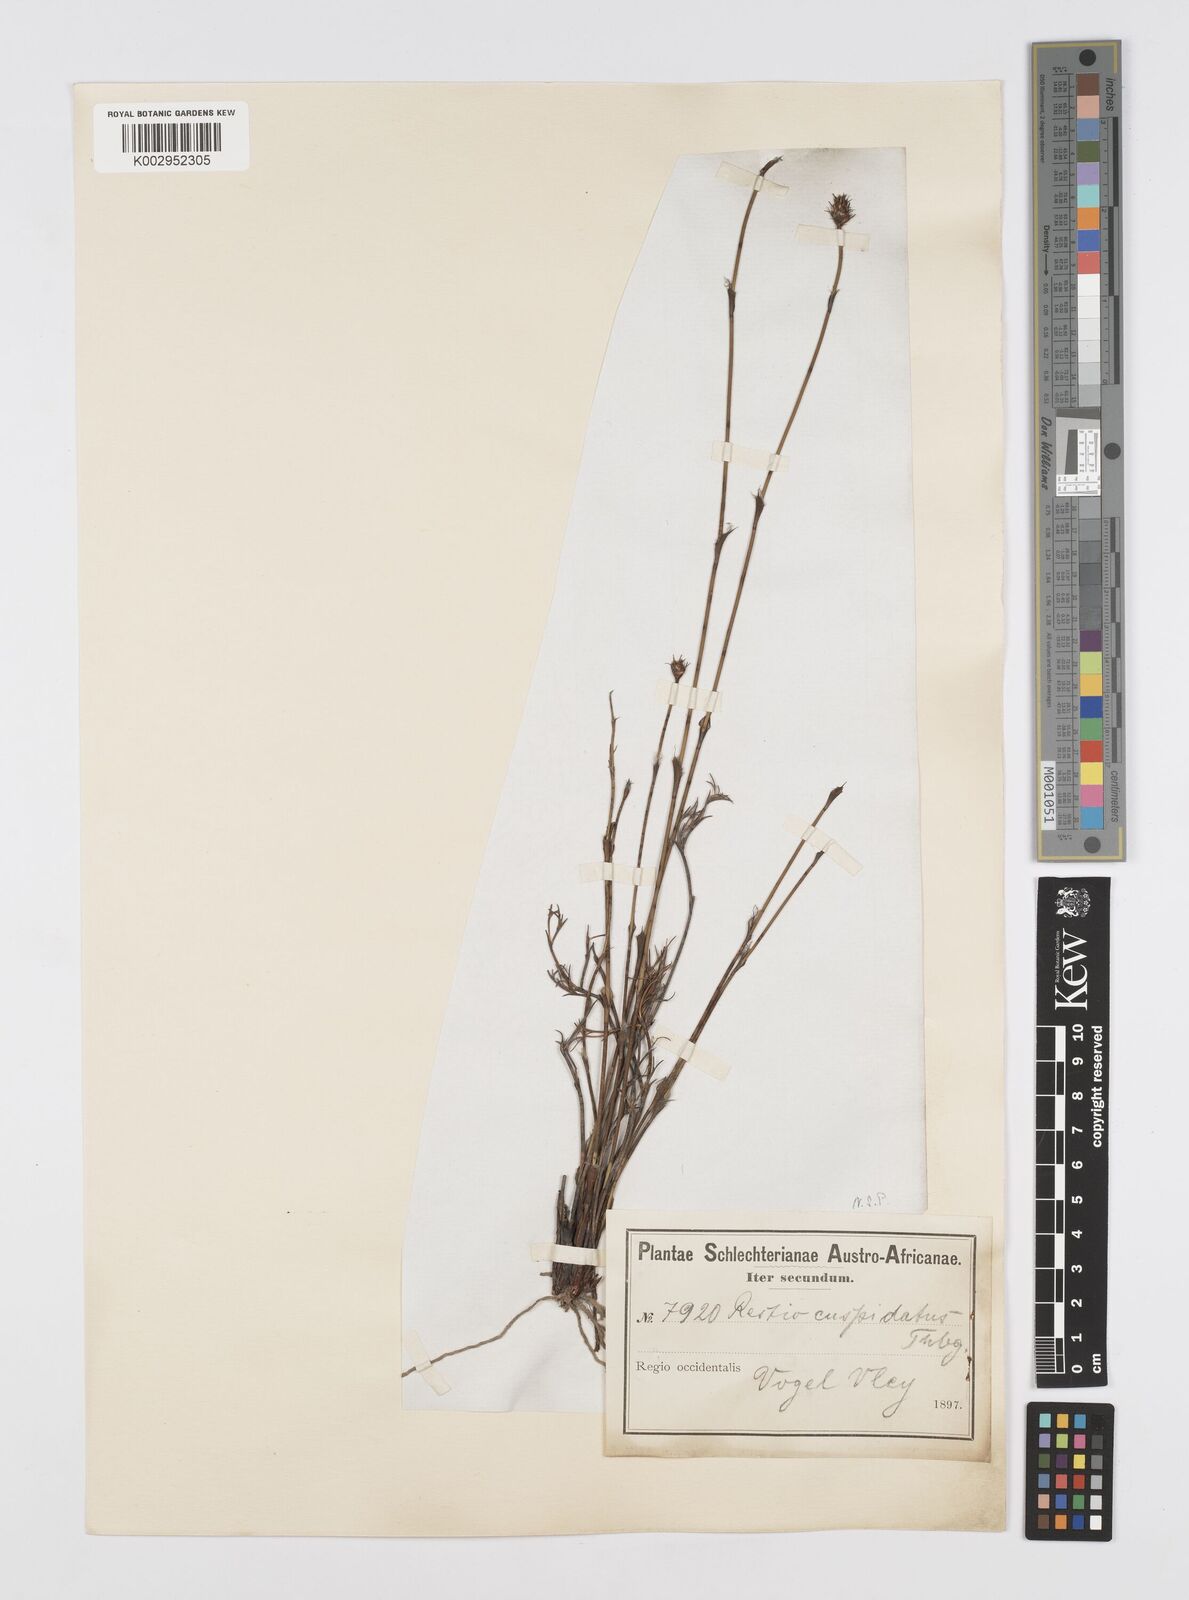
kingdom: Plantae
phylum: Tracheophyta
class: Liliopsida
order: Poales
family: Restionaceae
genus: Restio
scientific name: Restio capensis
